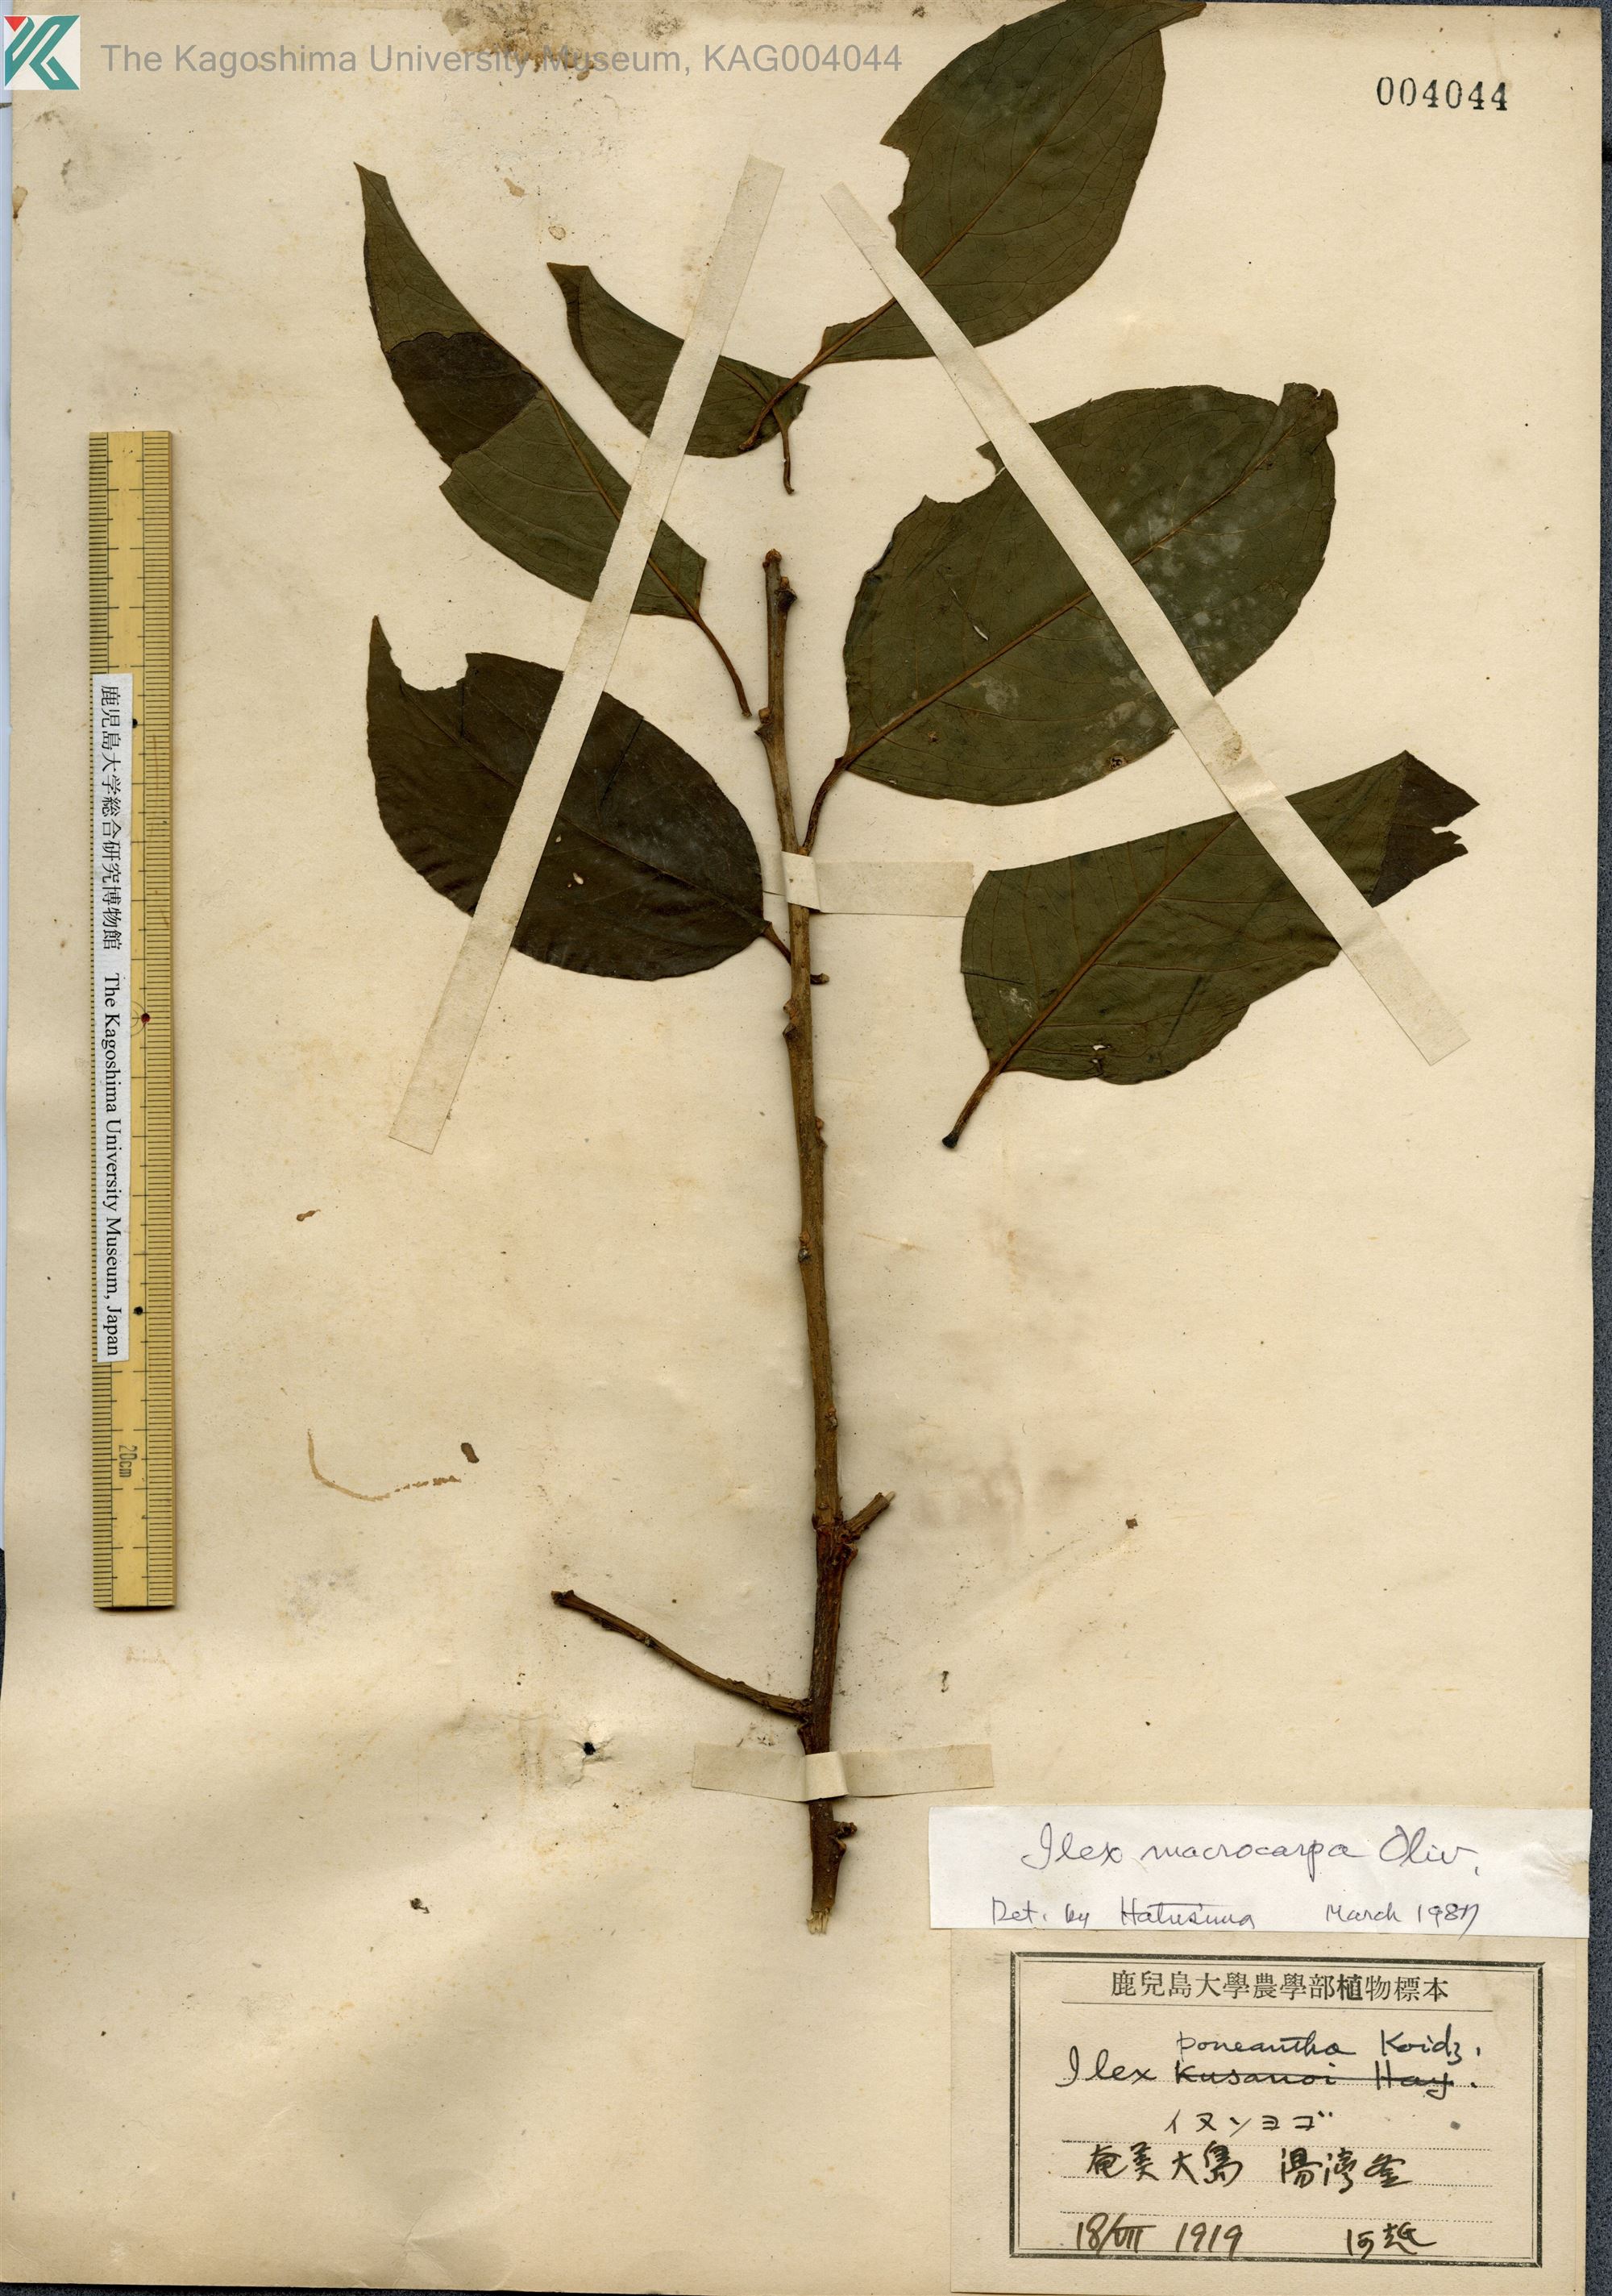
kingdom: Plantae
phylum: Tracheophyta
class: Magnoliopsida
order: Aquifoliales
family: Aquifoliaceae
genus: Ilex
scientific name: Ilex macrocarpa
